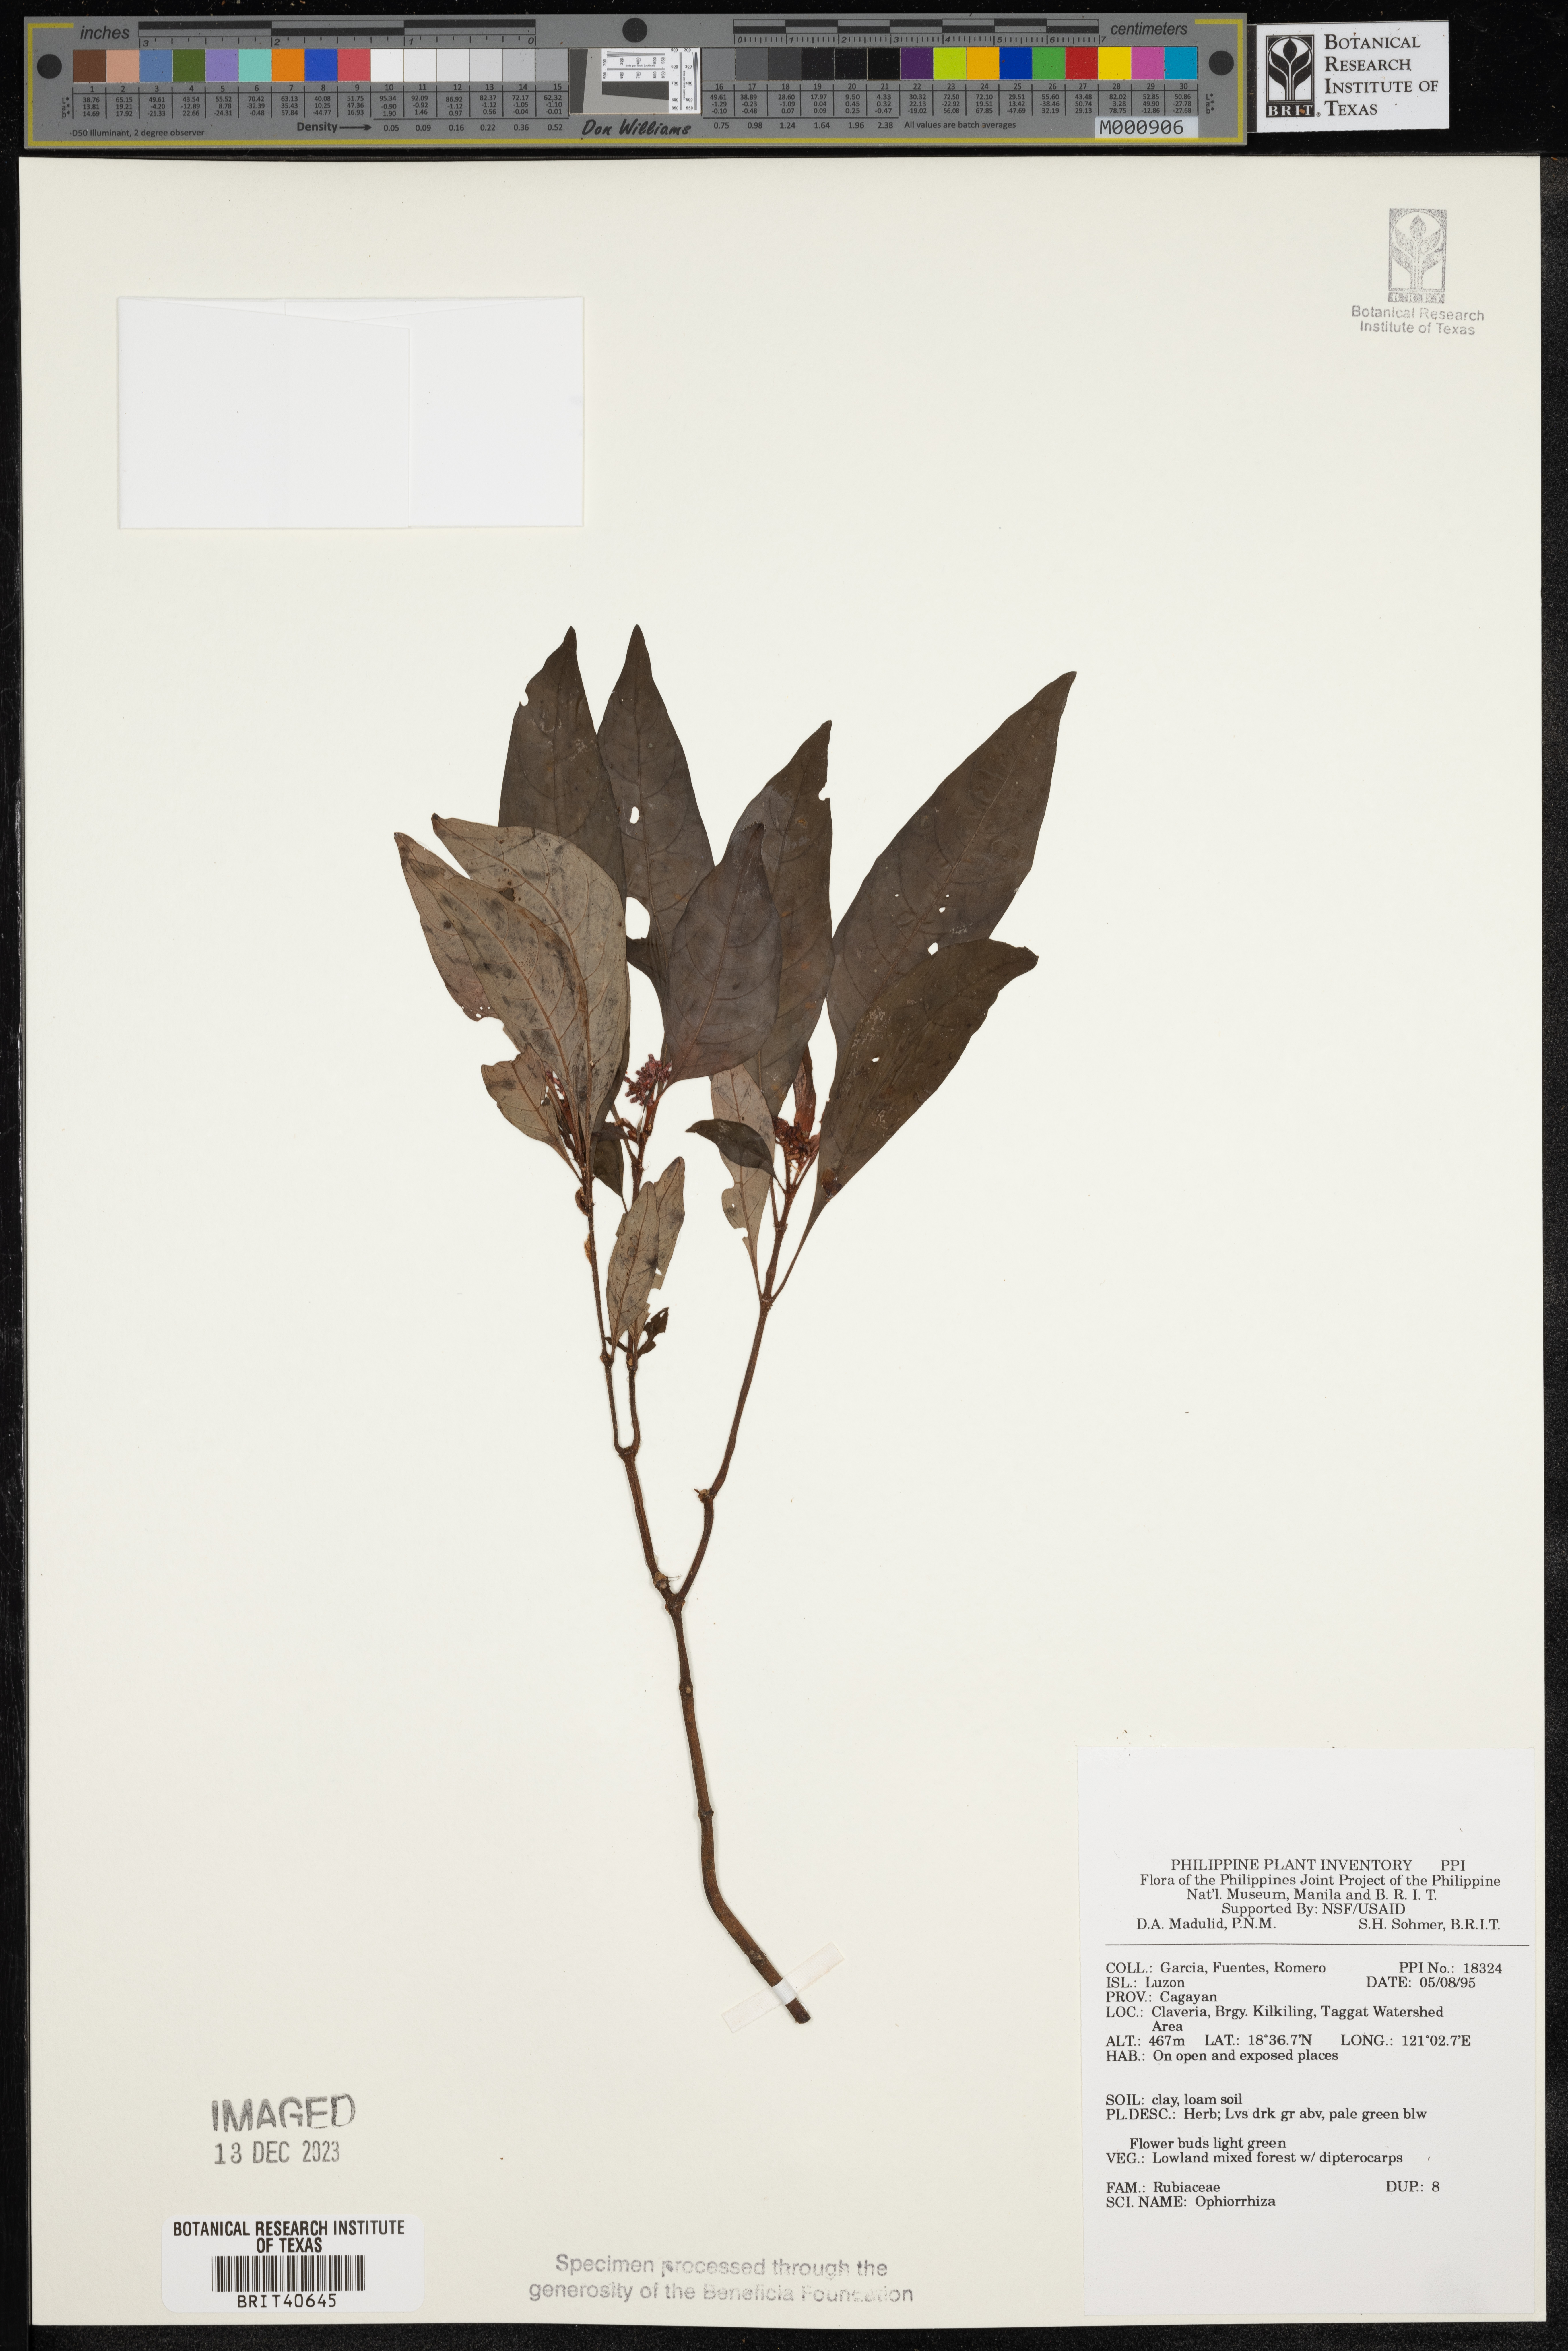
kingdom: Plantae
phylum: Tracheophyta
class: Magnoliopsida
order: Gentianales
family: Rubiaceae
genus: Ophiorrhiza
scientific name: Ophiorrhiza
